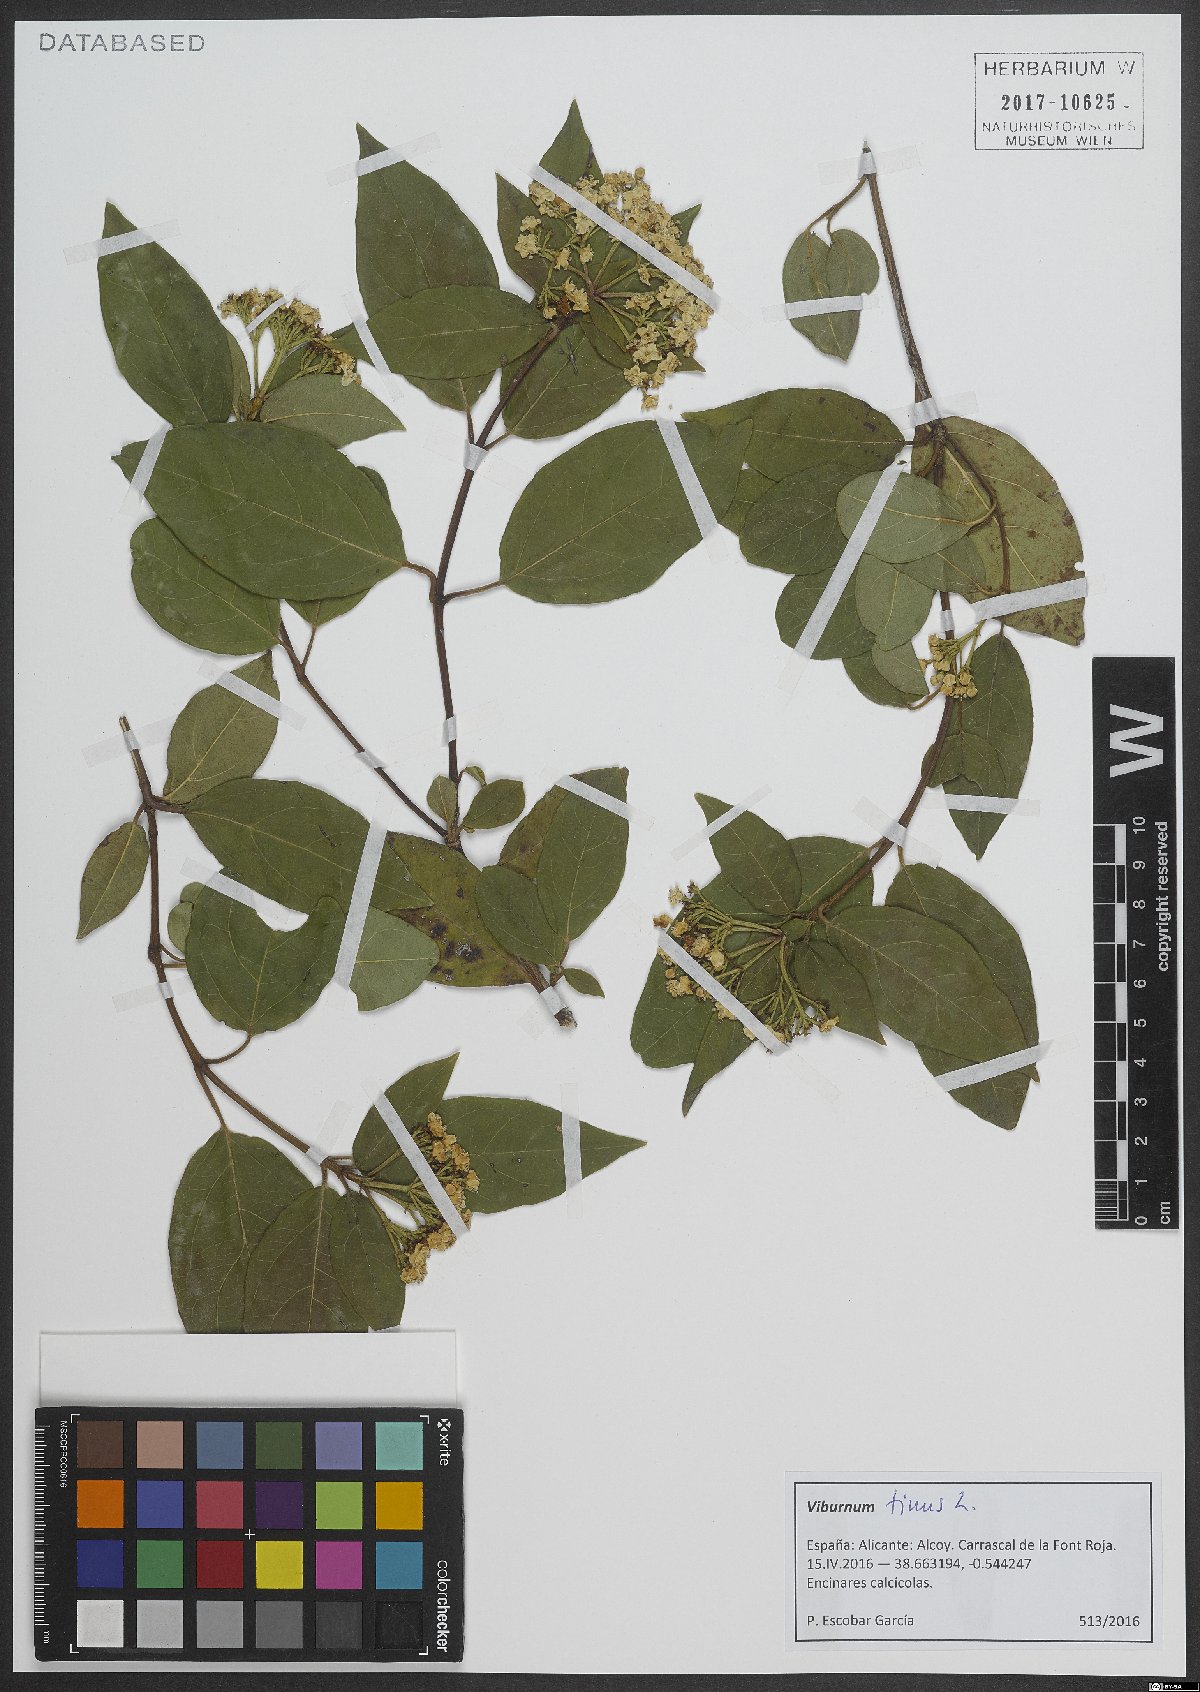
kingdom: Plantae
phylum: Tracheophyta
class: Magnoliopsida
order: Dipsacales
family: Viburnaceae
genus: Viburnum
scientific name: Viburnum tinus
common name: Laurustinus
